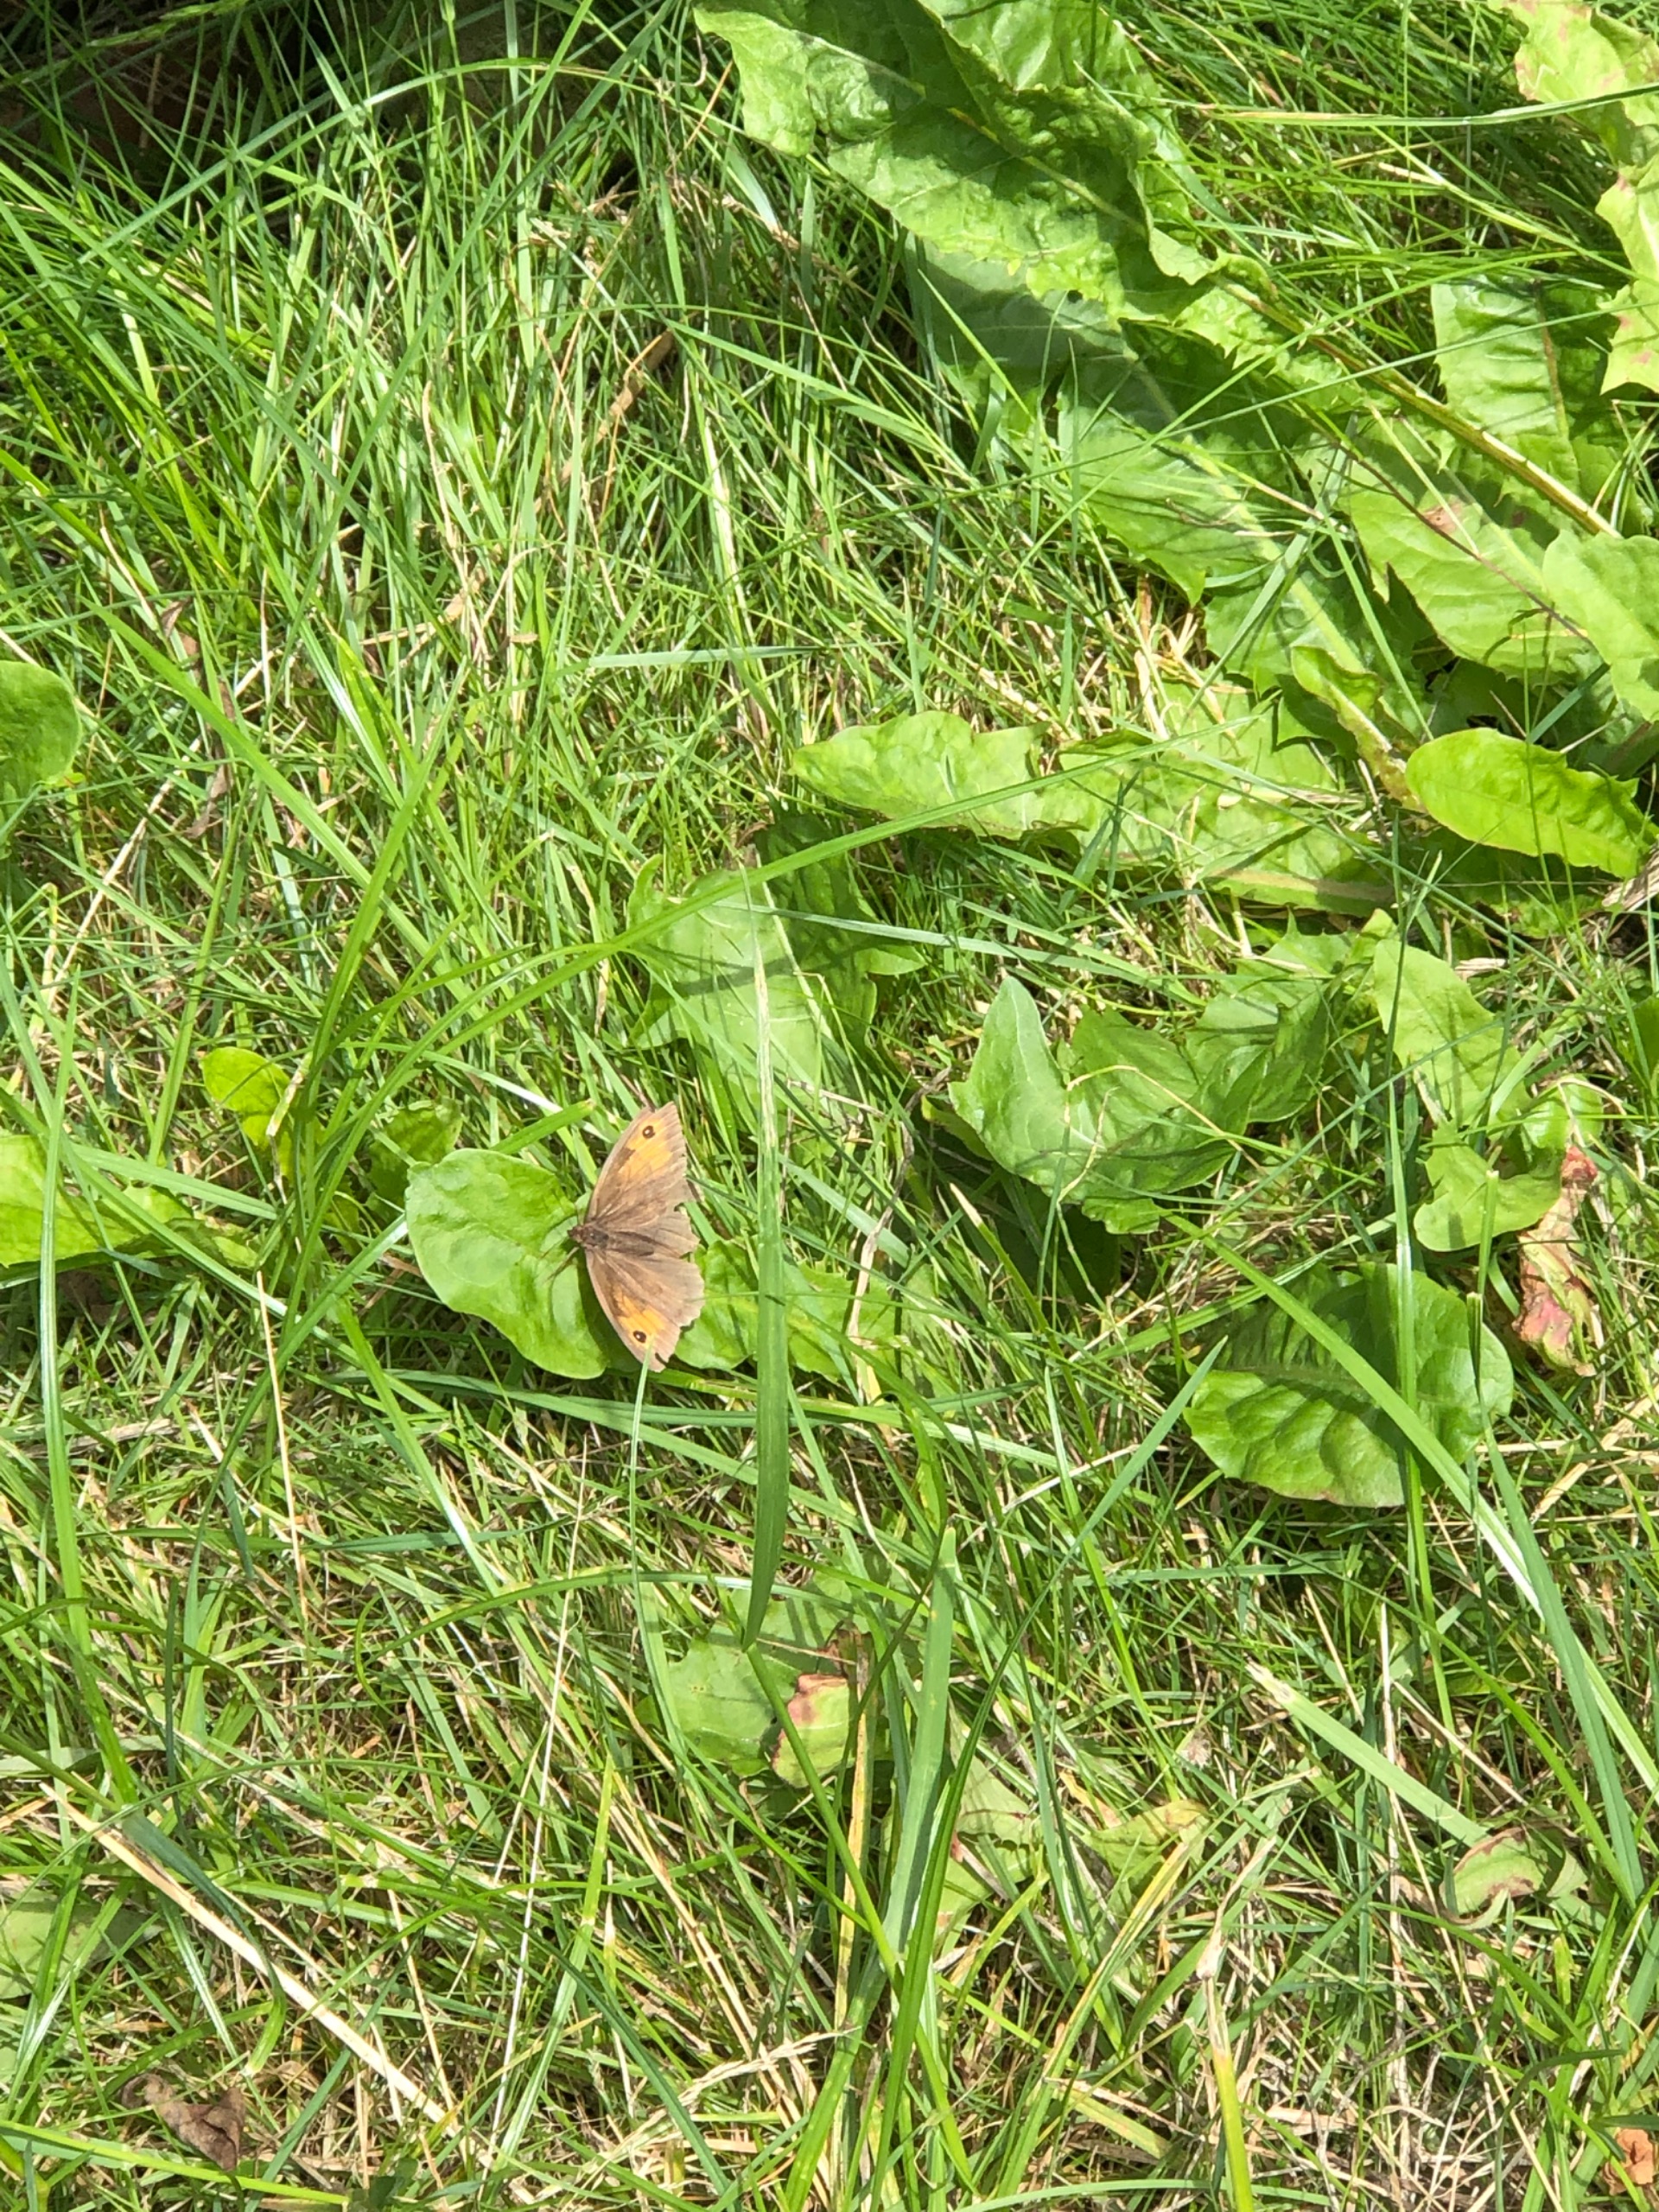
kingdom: Animalia
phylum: Arthropoda
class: Insecta
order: Lepidoptera
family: Nymphalidae
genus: Maniola
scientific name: Maniola jurtina
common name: Græsrandøje
